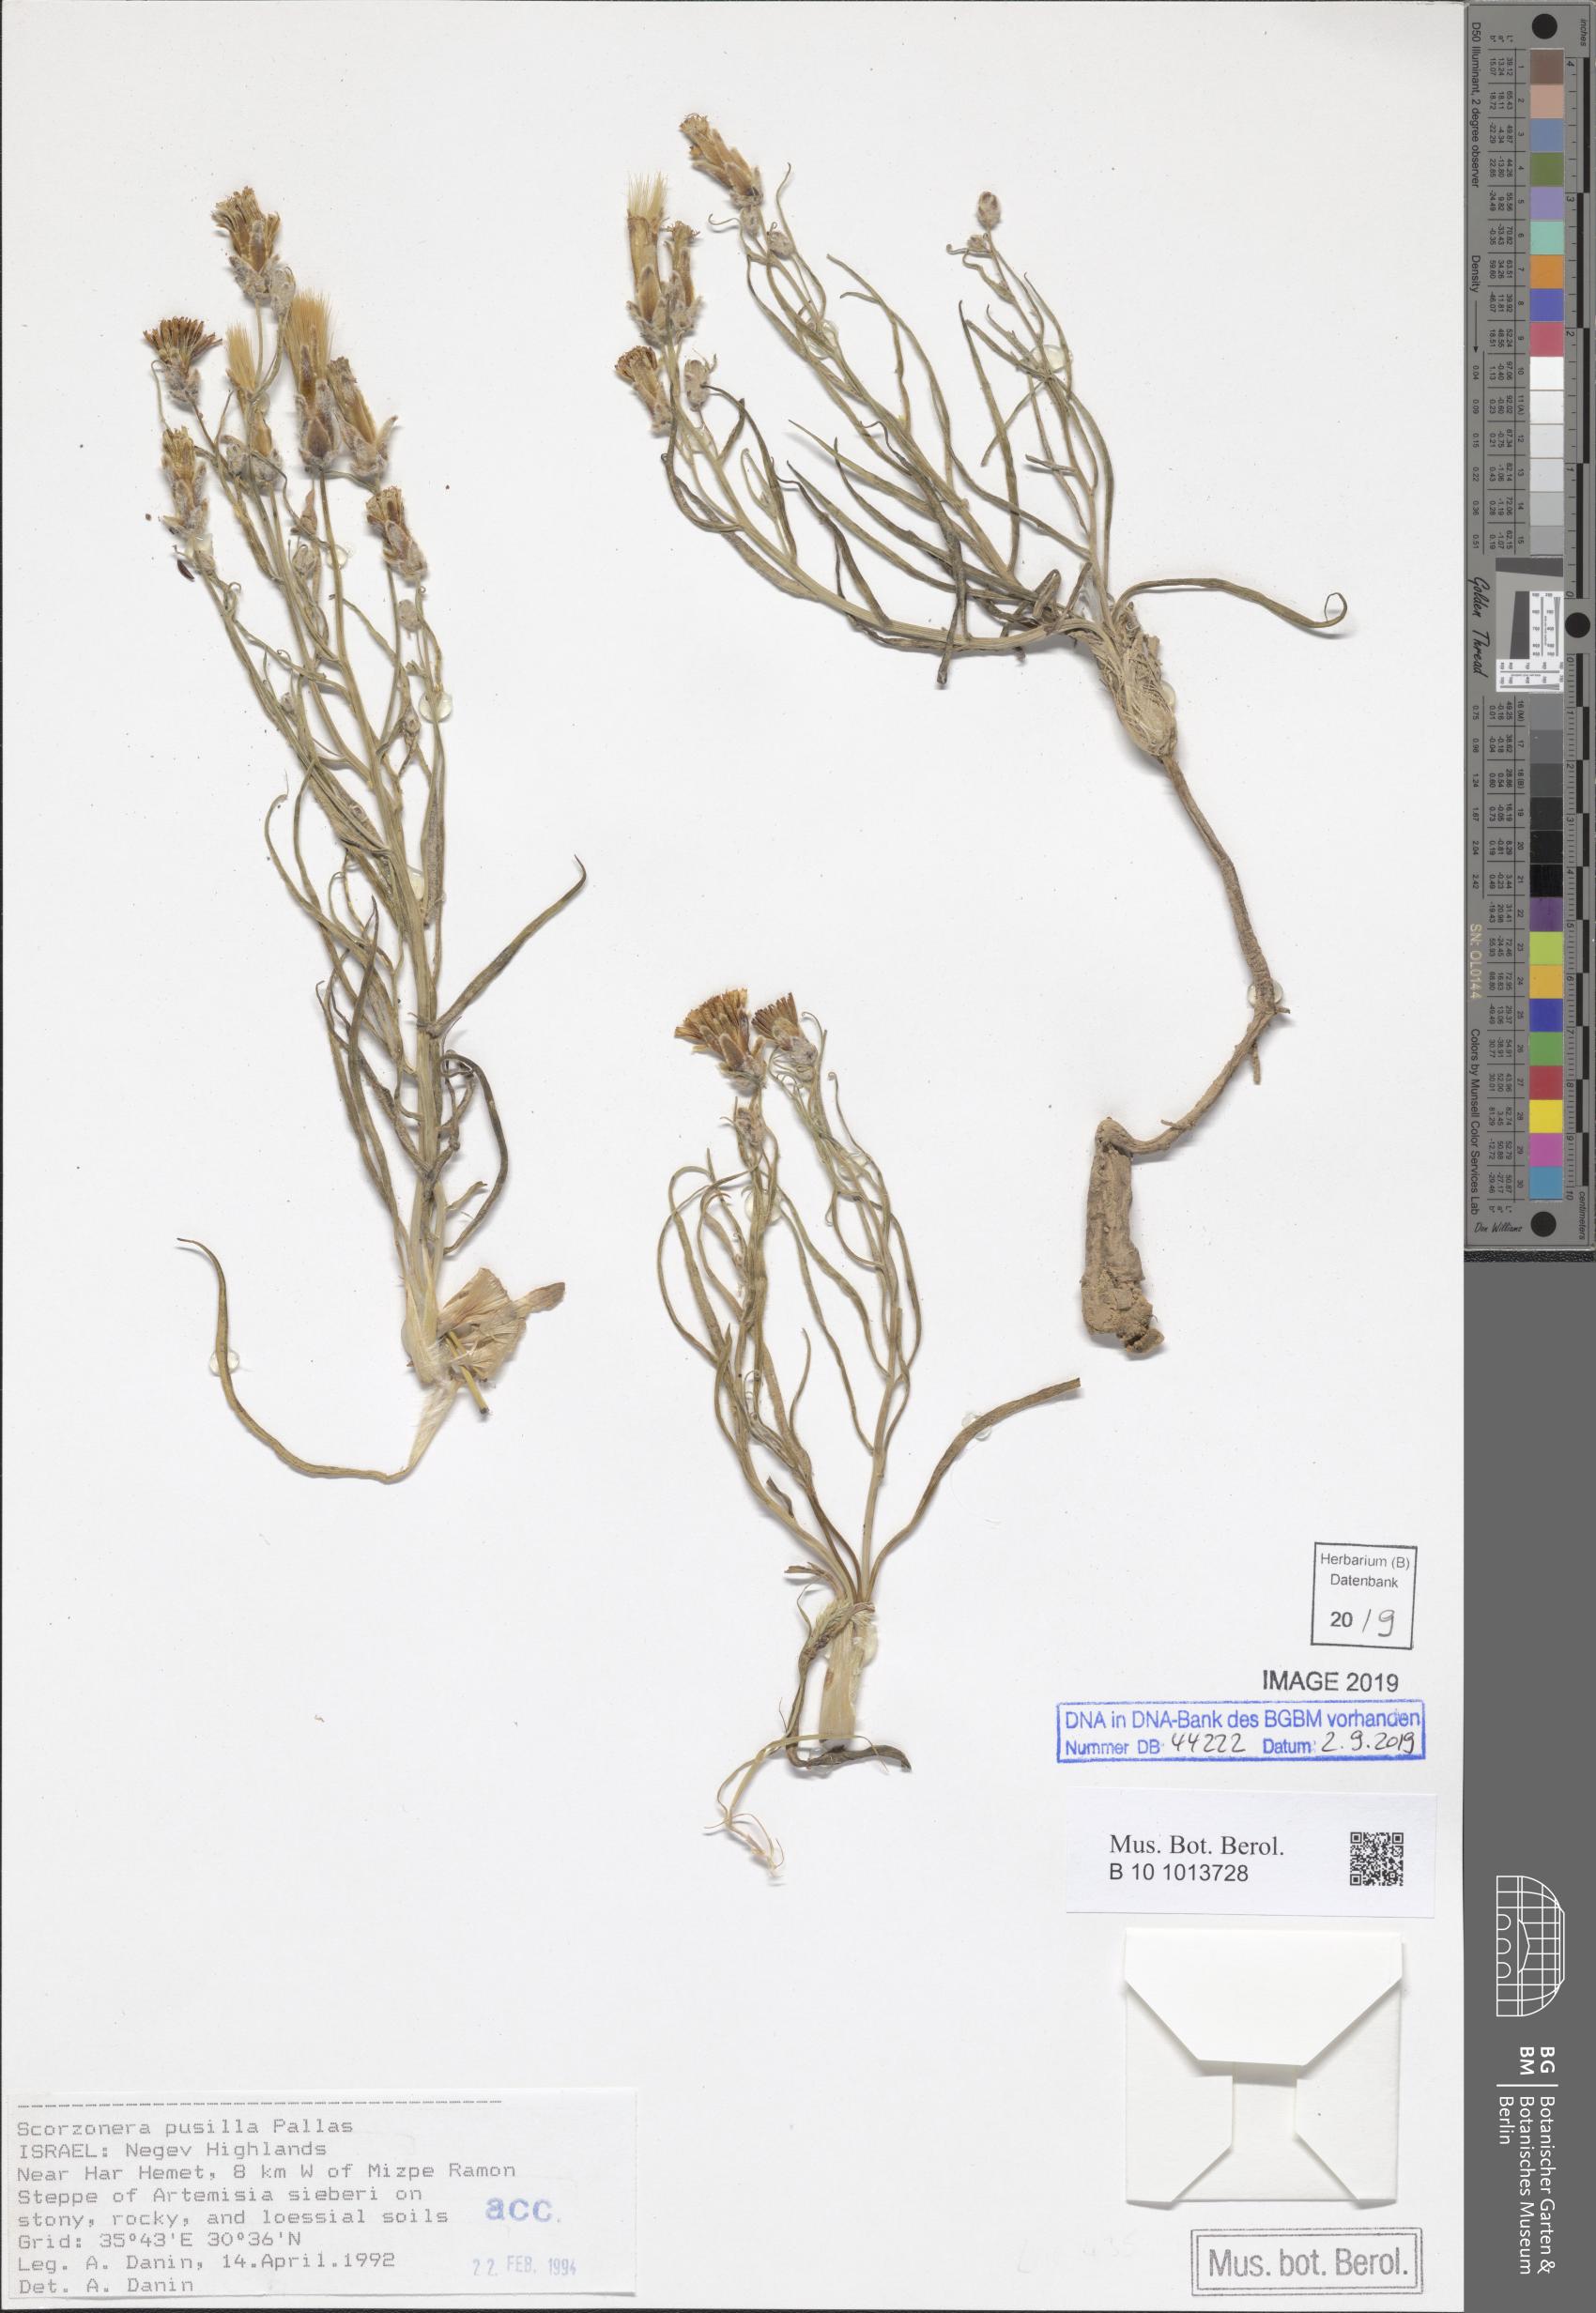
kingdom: Plantae
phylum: Tracheophyta
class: Magnoliopsida
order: Asterales
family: Asteraceae
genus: Takhtajaniantha
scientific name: Takhtajaniantha pusilla
